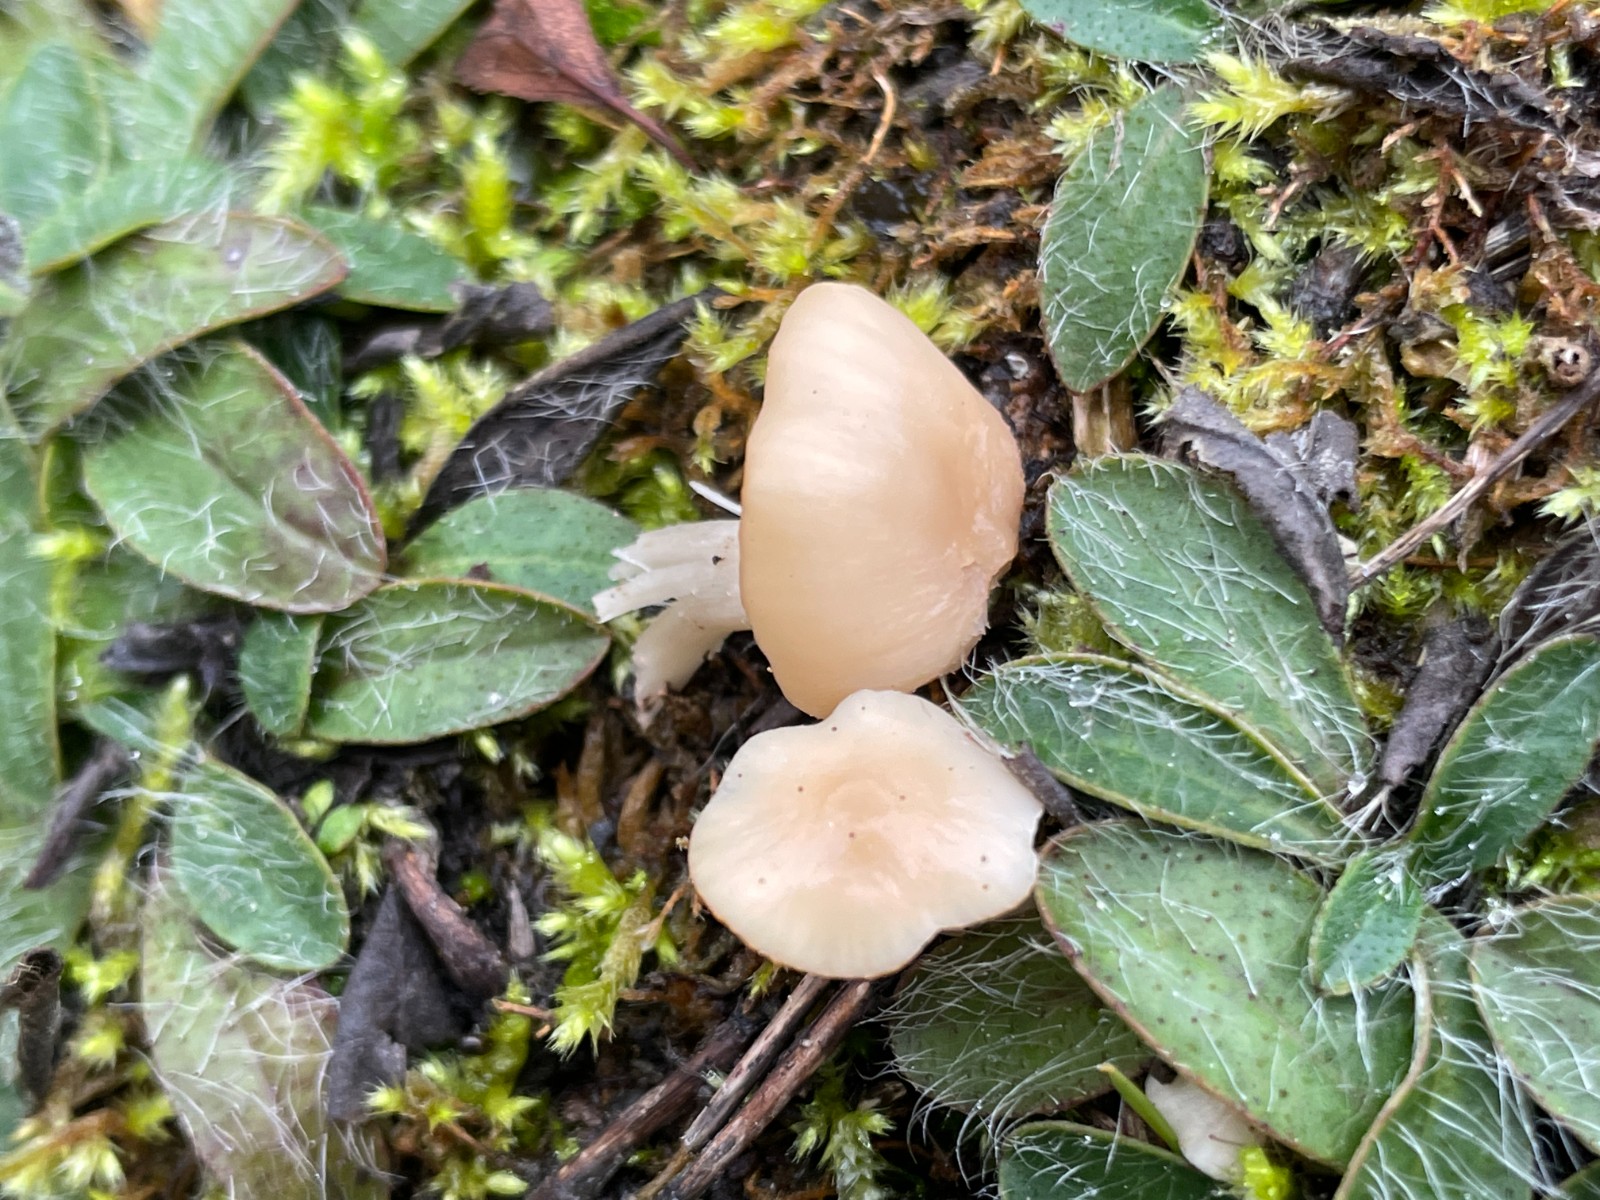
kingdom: Fungi
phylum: Basidiomycota
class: Agaricomycetes
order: Agaricales
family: Hygrophoraceae
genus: Cuphophyllus
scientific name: Cuphophyllus virgineus
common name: isabella-vokshat
